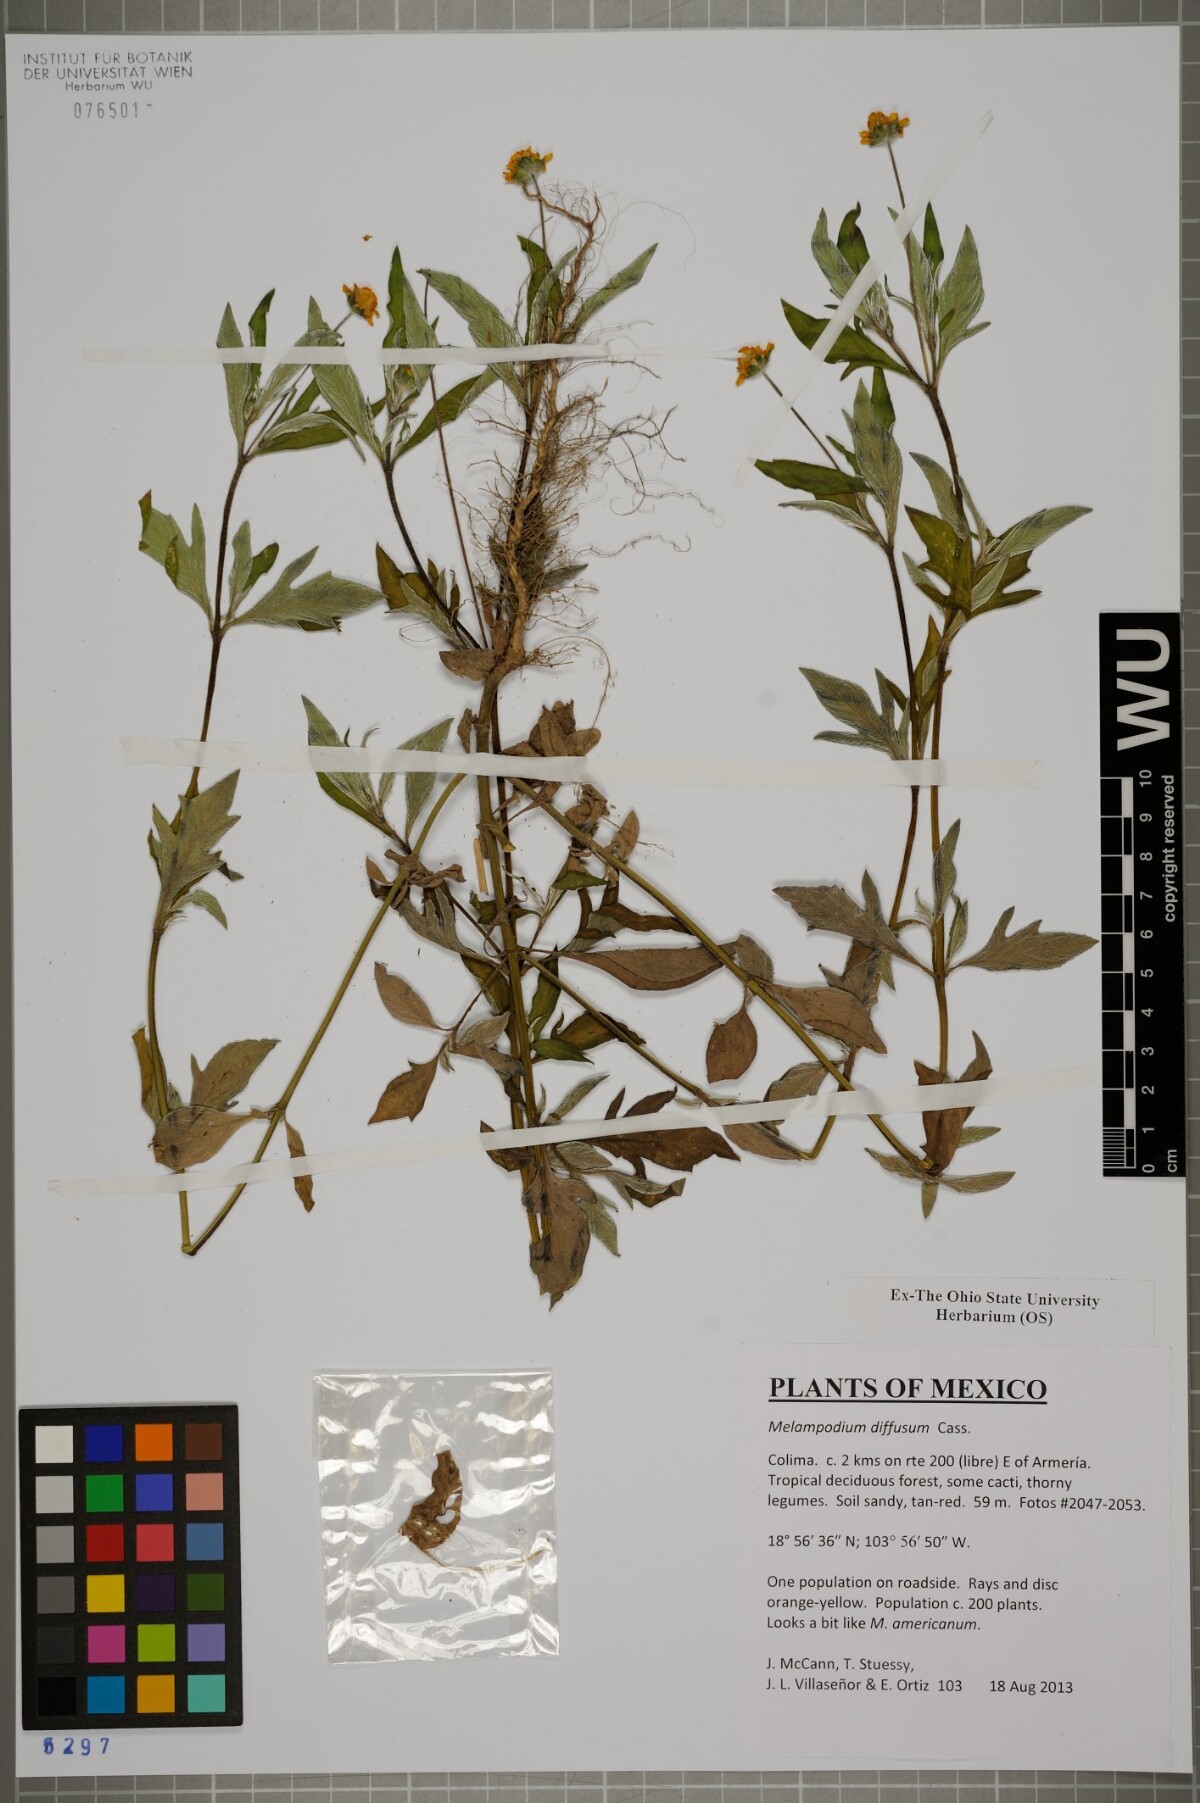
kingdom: Plantae
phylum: Tracheophyta
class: Magnoliopsida
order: Asterales
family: Asteraceae
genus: Melampodium
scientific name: Melampodium diffusum
